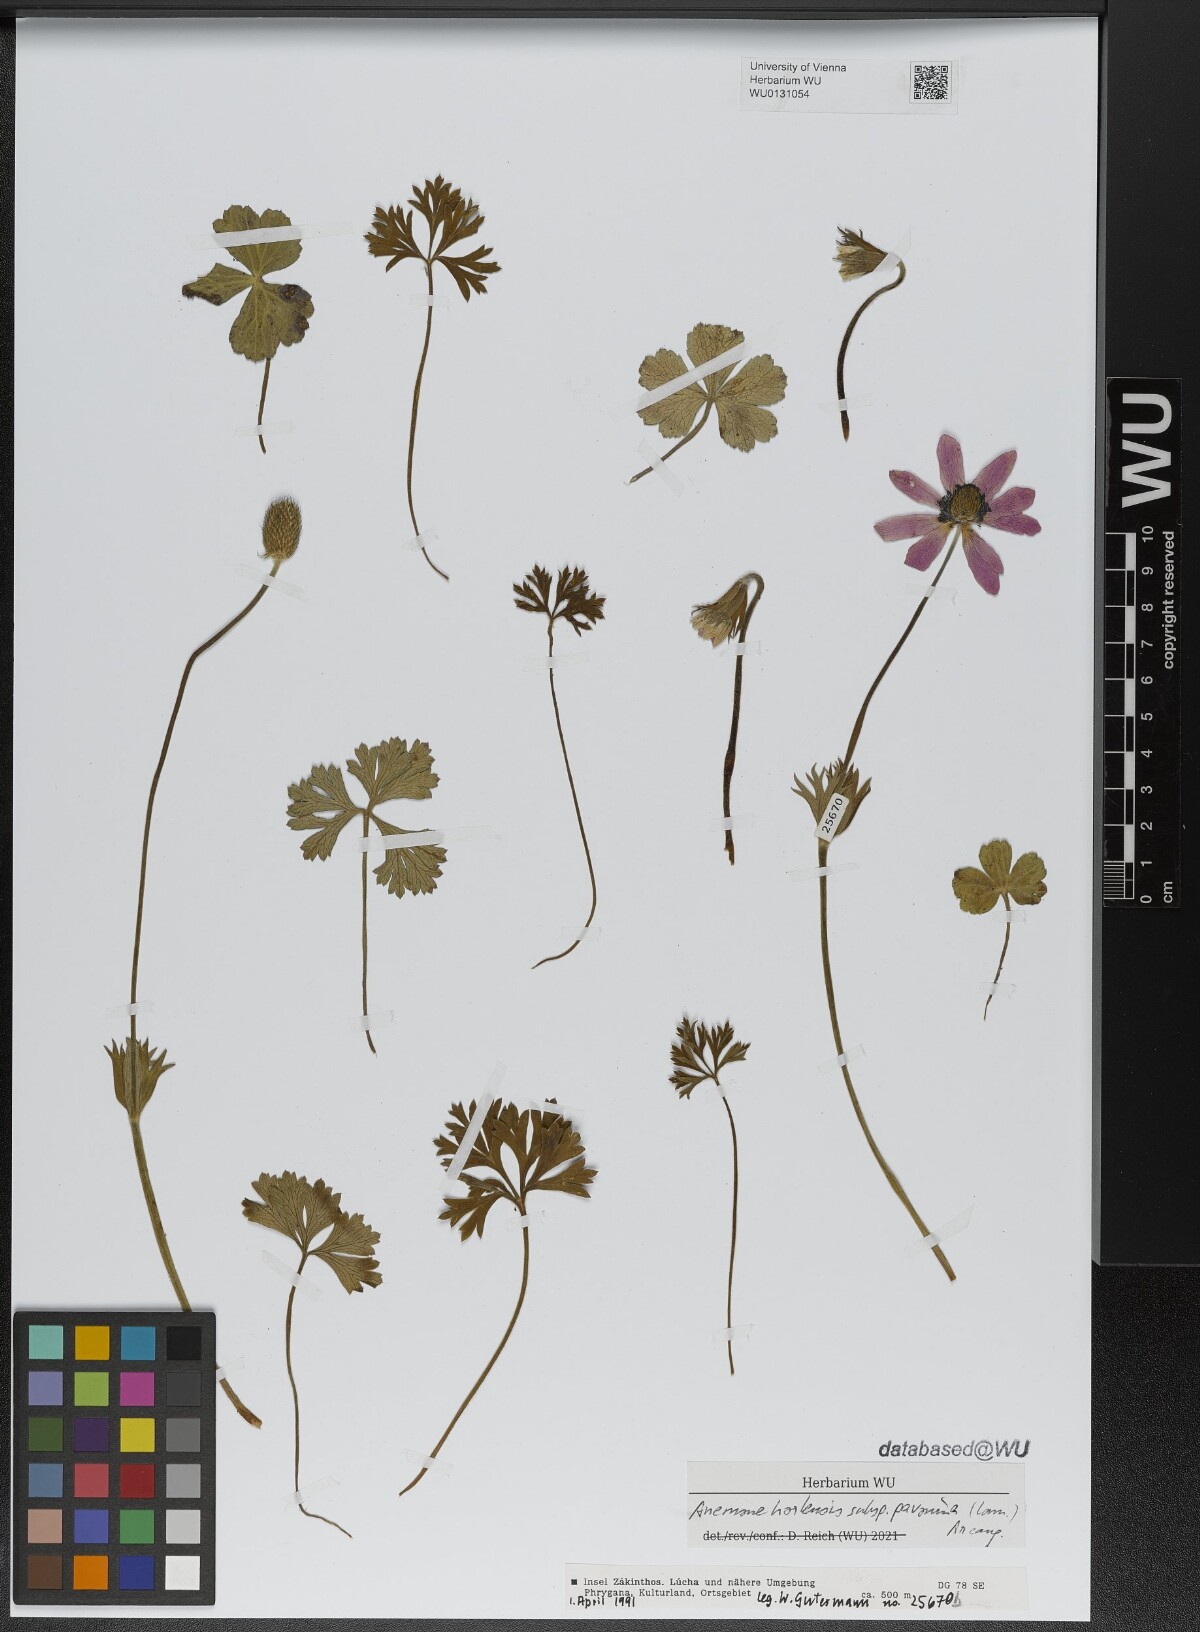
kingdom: Plantae
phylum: Tracheophyta
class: Magnoliopsida
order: Ranunculales
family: Ranunculaceae
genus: Anemone
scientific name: Anemone pavonina
